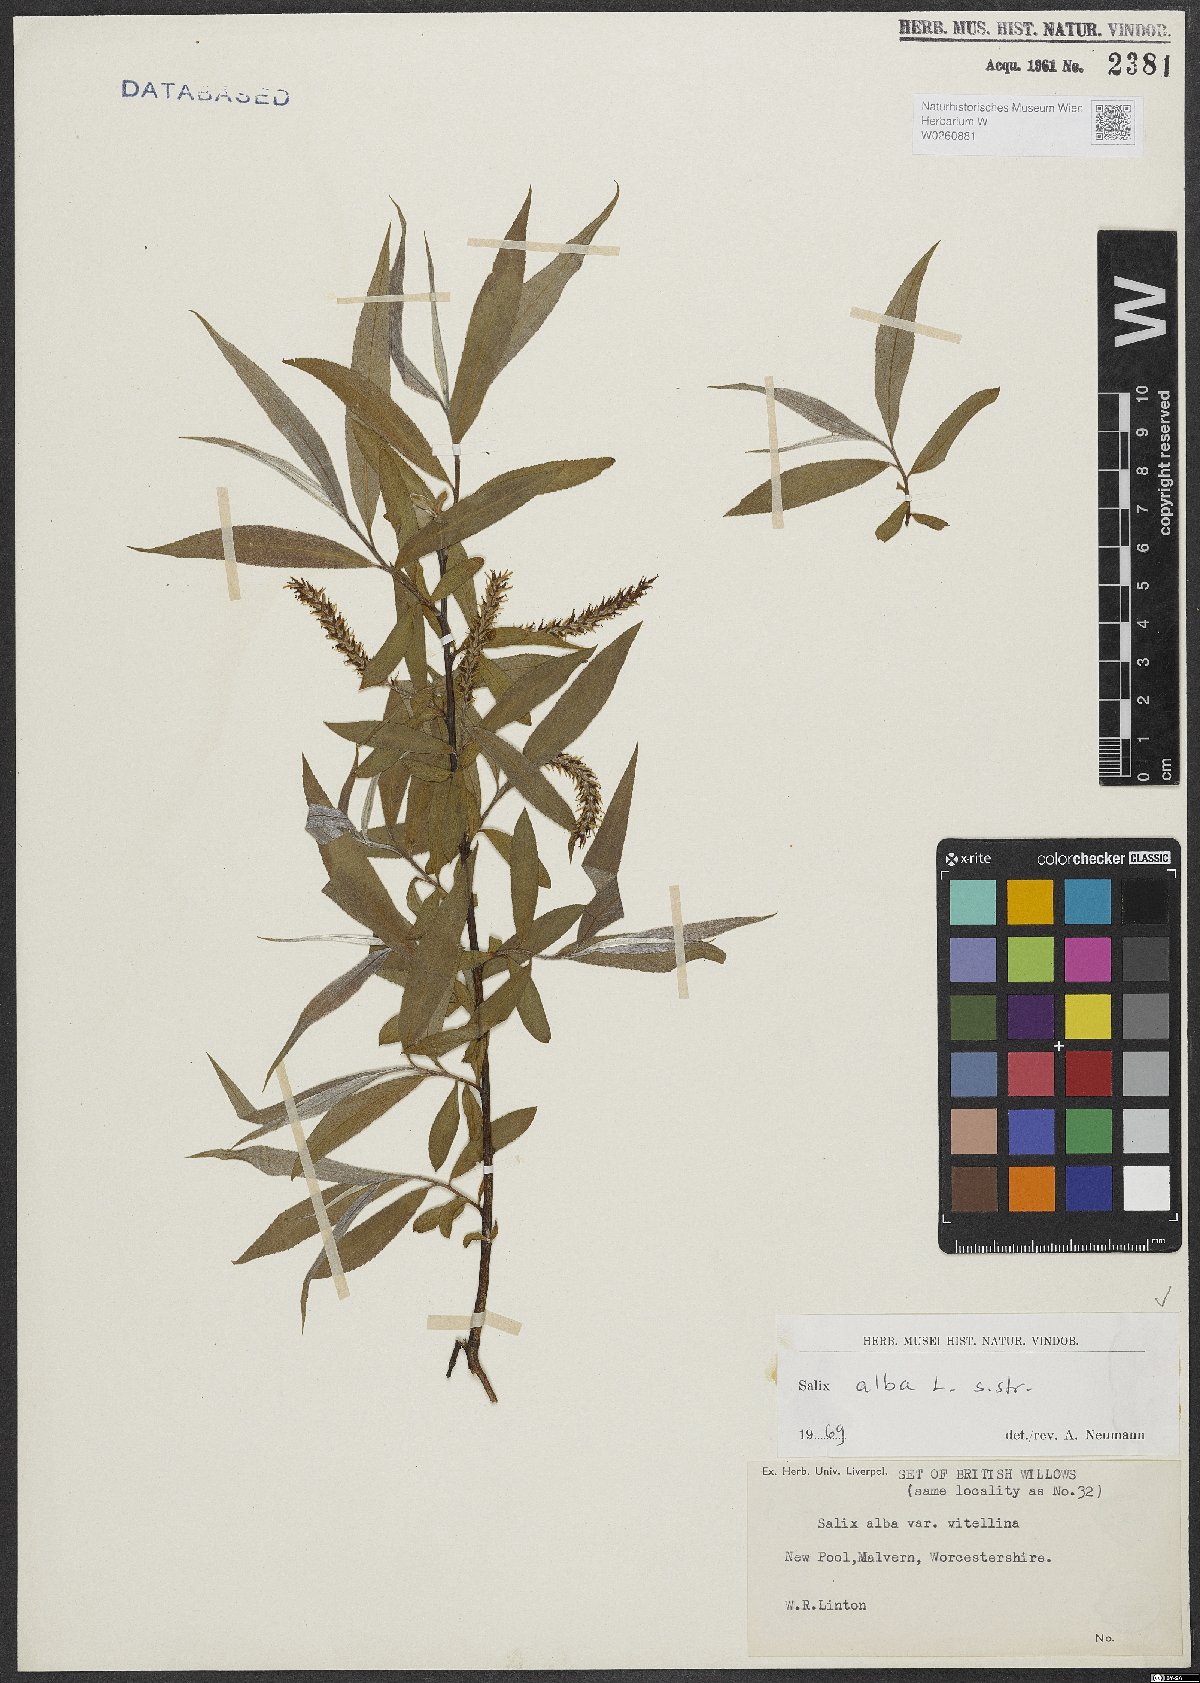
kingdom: Plantae
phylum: Tracheophyta
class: Magnoliopsida
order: Malpighiales
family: Salicaceae
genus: Salix
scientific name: Salix alba
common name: White willow
